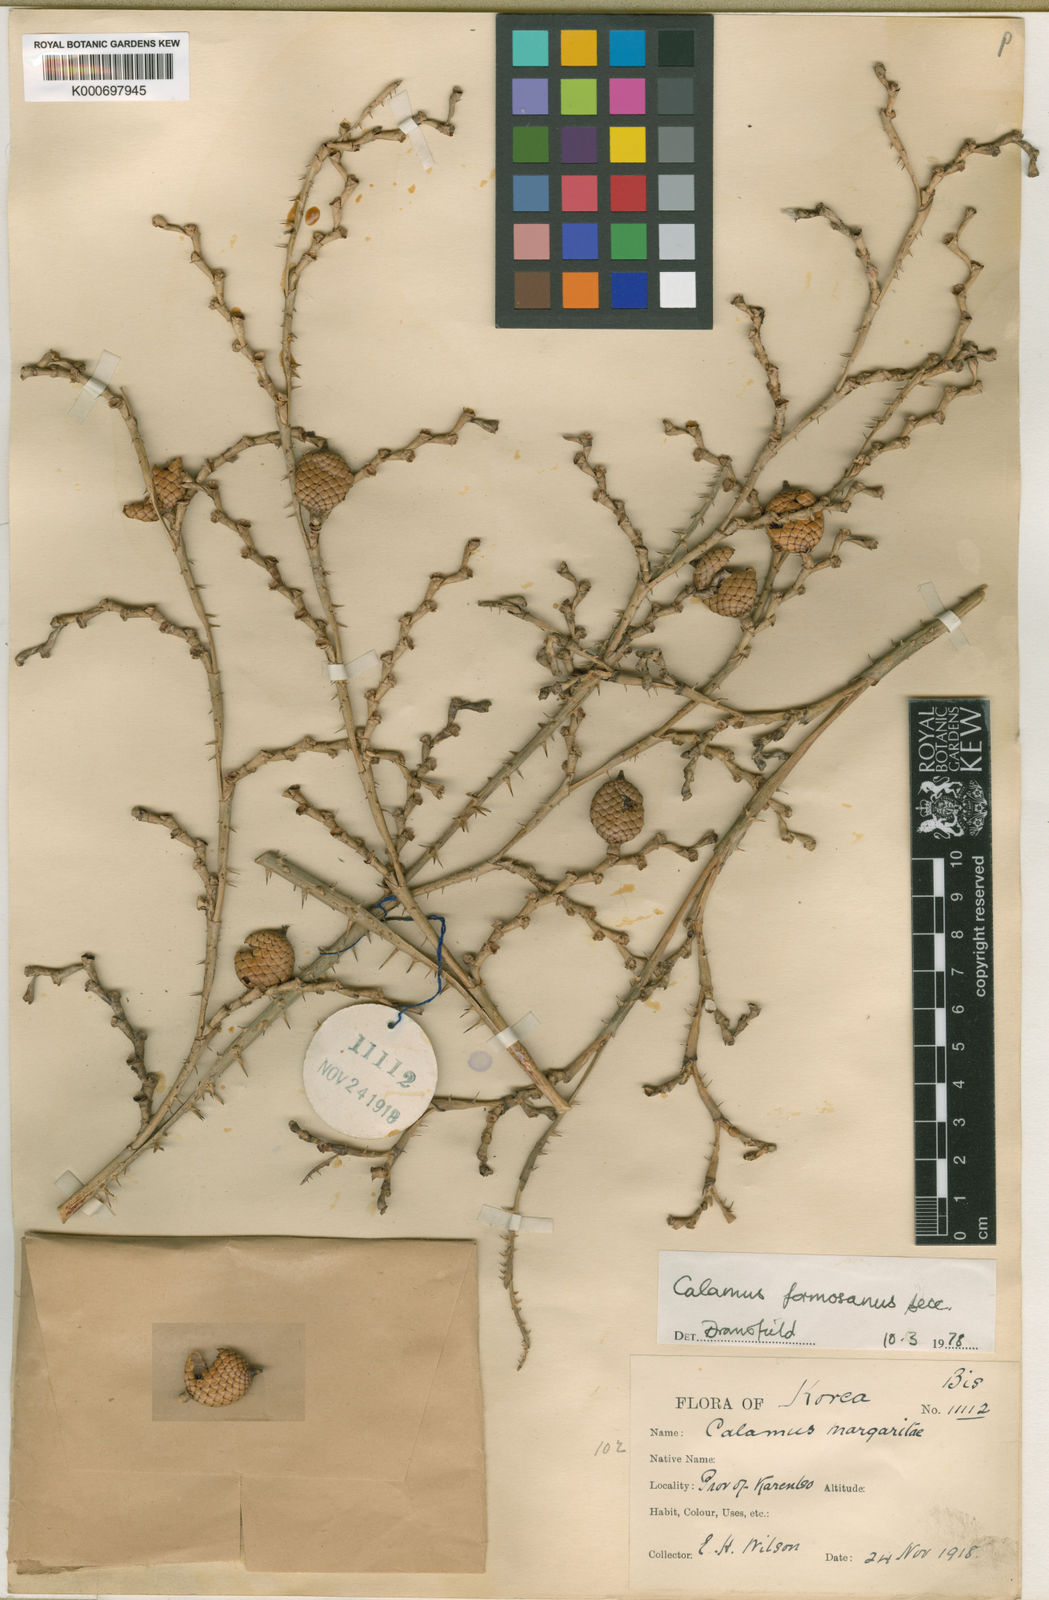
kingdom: Plantae
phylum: Tracheophyta
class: Liliopsida
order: Arecales
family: Arecaceae
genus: Calamus
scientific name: Calamus formosanus
